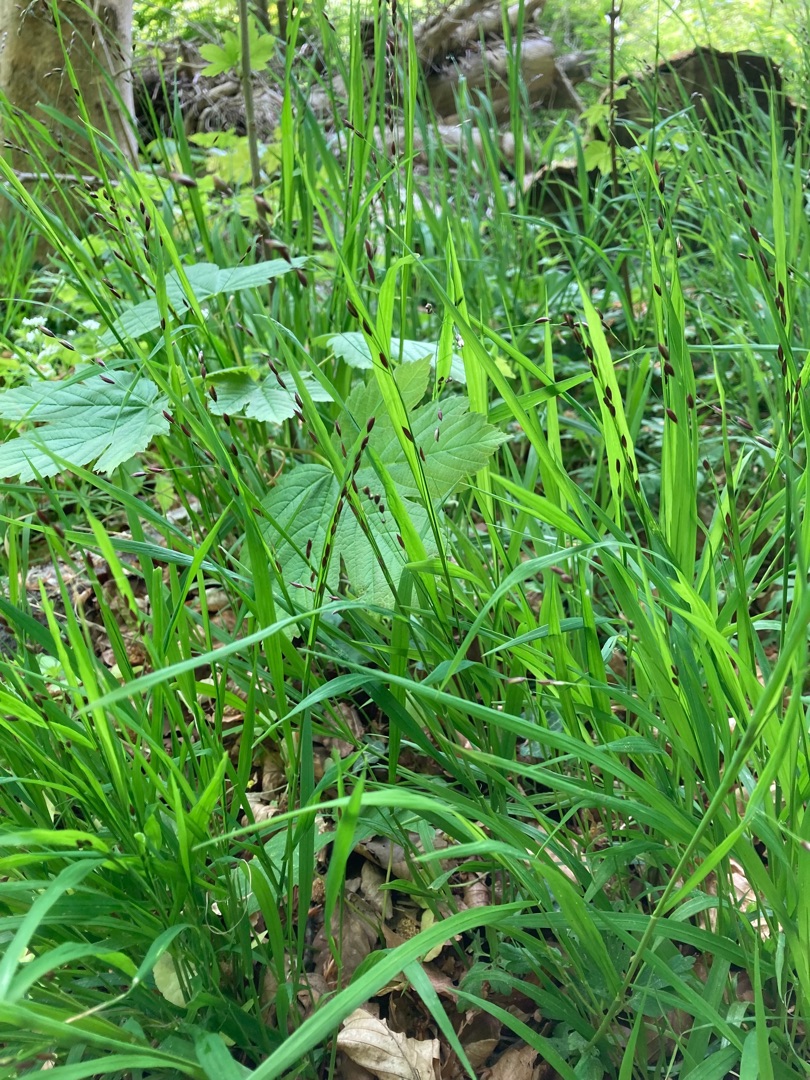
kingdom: Plantae
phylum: Tracheophyta
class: Liliopsida
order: Poales
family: Poaceae
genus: Melica
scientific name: Melica uniflora
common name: Enblomstret flitteraks
